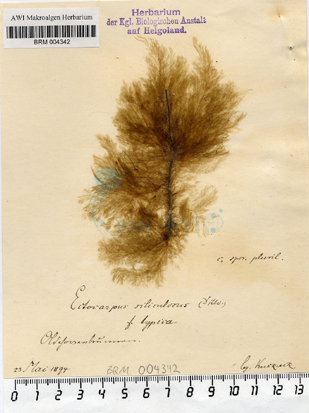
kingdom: Chromista
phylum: Ochrophyta
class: Phaeophyceae
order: Ectocarpales
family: Ectocarpaceae
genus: Ectocarpus
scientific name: Ectocarpus siliculosus
